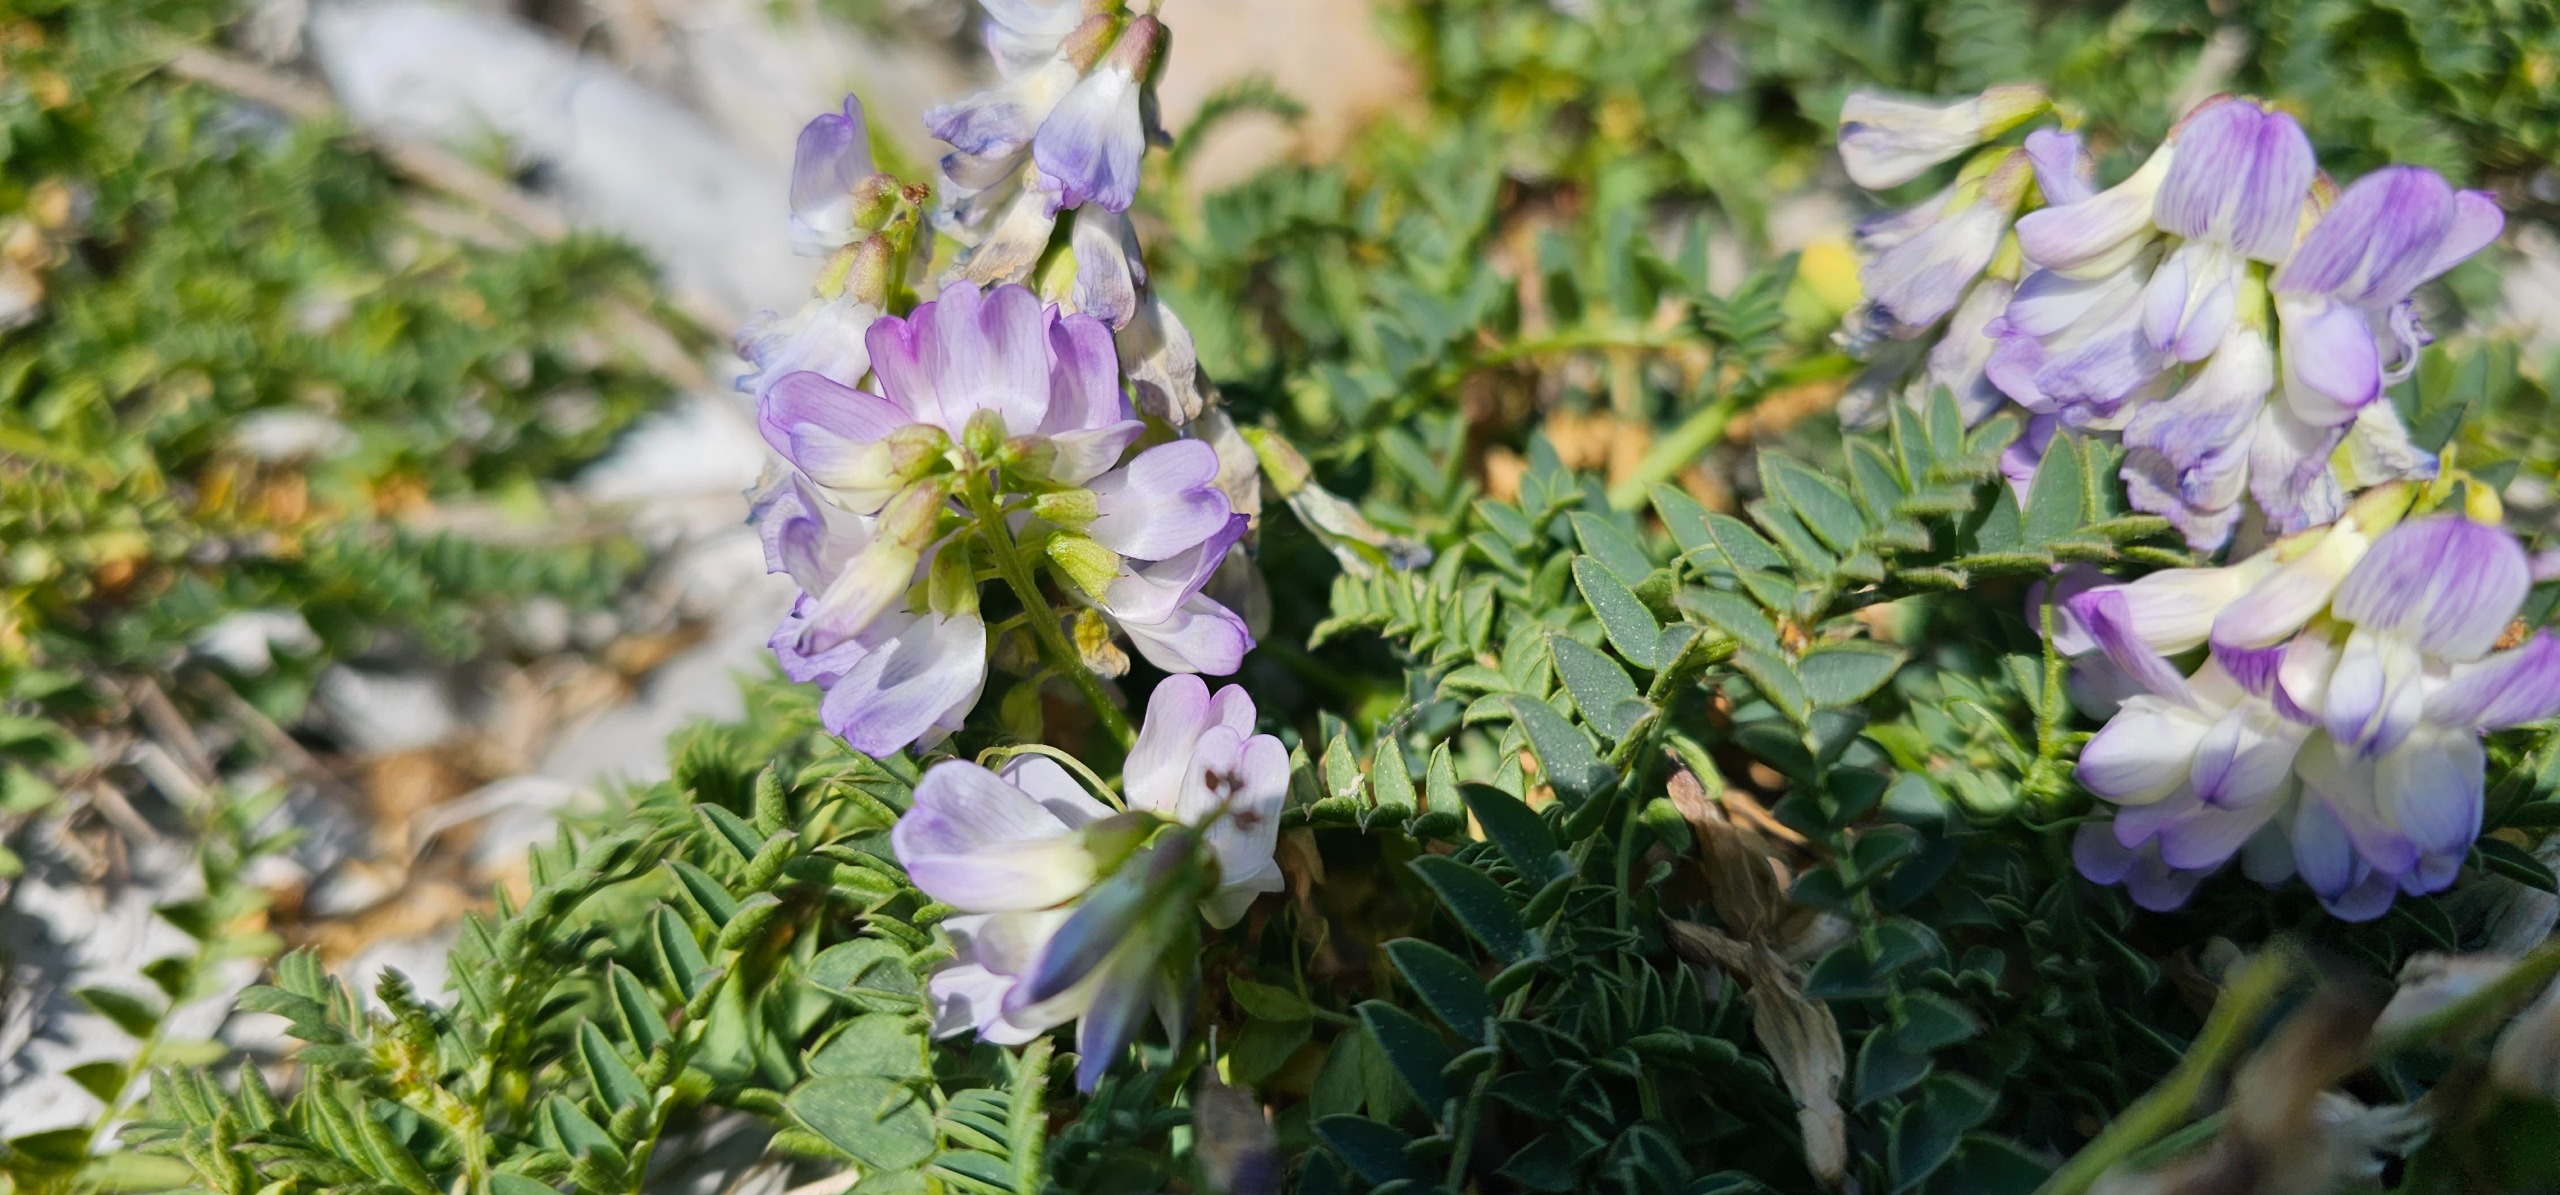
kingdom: Plantae
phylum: Tracheophyta
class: Magnoliopsida
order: Fabales
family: Fabaceae
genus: Vicia
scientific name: Vicia sylvatica
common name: Lav skov-vikke
